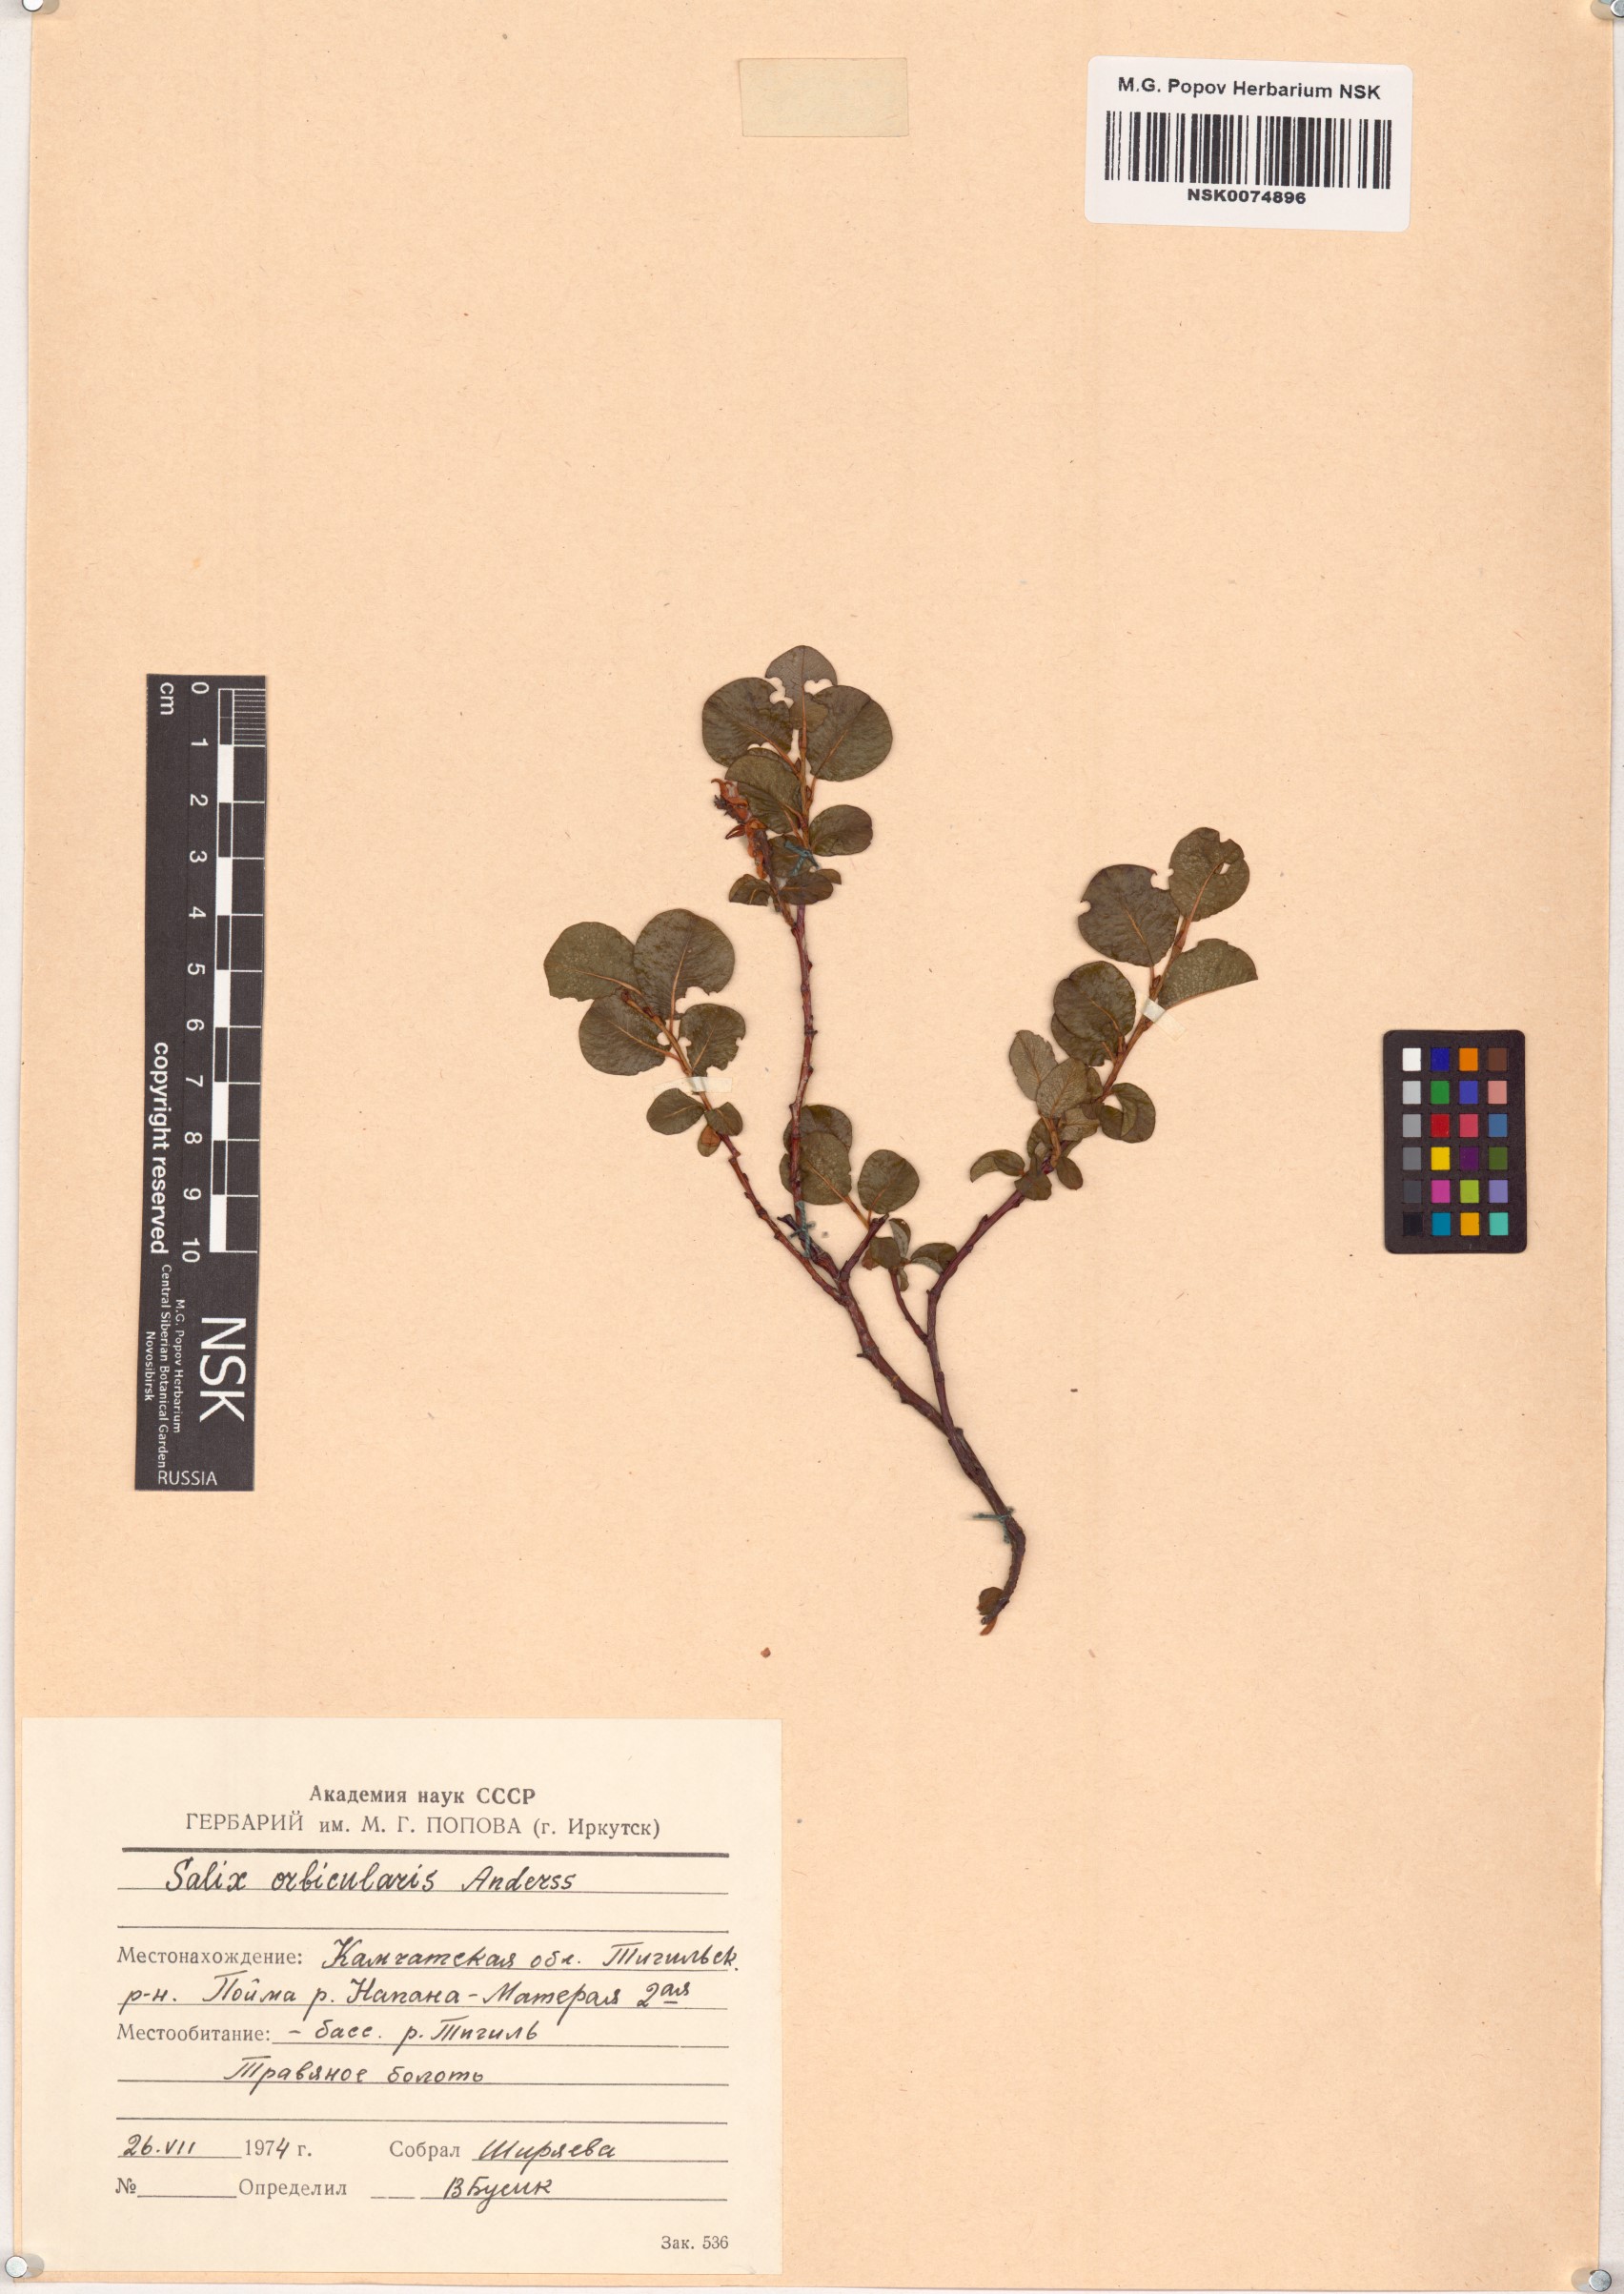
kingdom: Plantae
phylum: Tracheophyta
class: Magnoliopsida
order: Malpighiales
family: Salicaceae
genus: Salix
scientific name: Salix orbicularis
